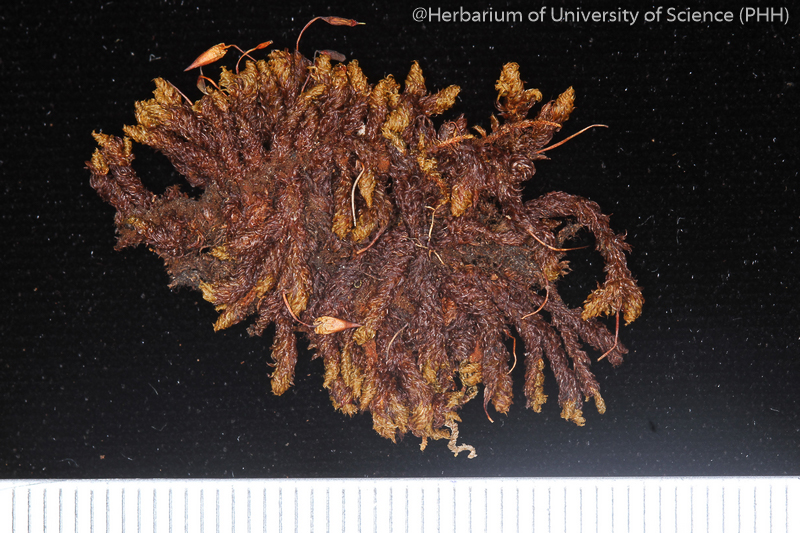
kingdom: Plantae
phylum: Bryophyta
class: Bryopsida
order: Orthotrichales
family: Orthotrichaceae
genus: Schlotheimia
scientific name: Schlotheimia ferruginea
